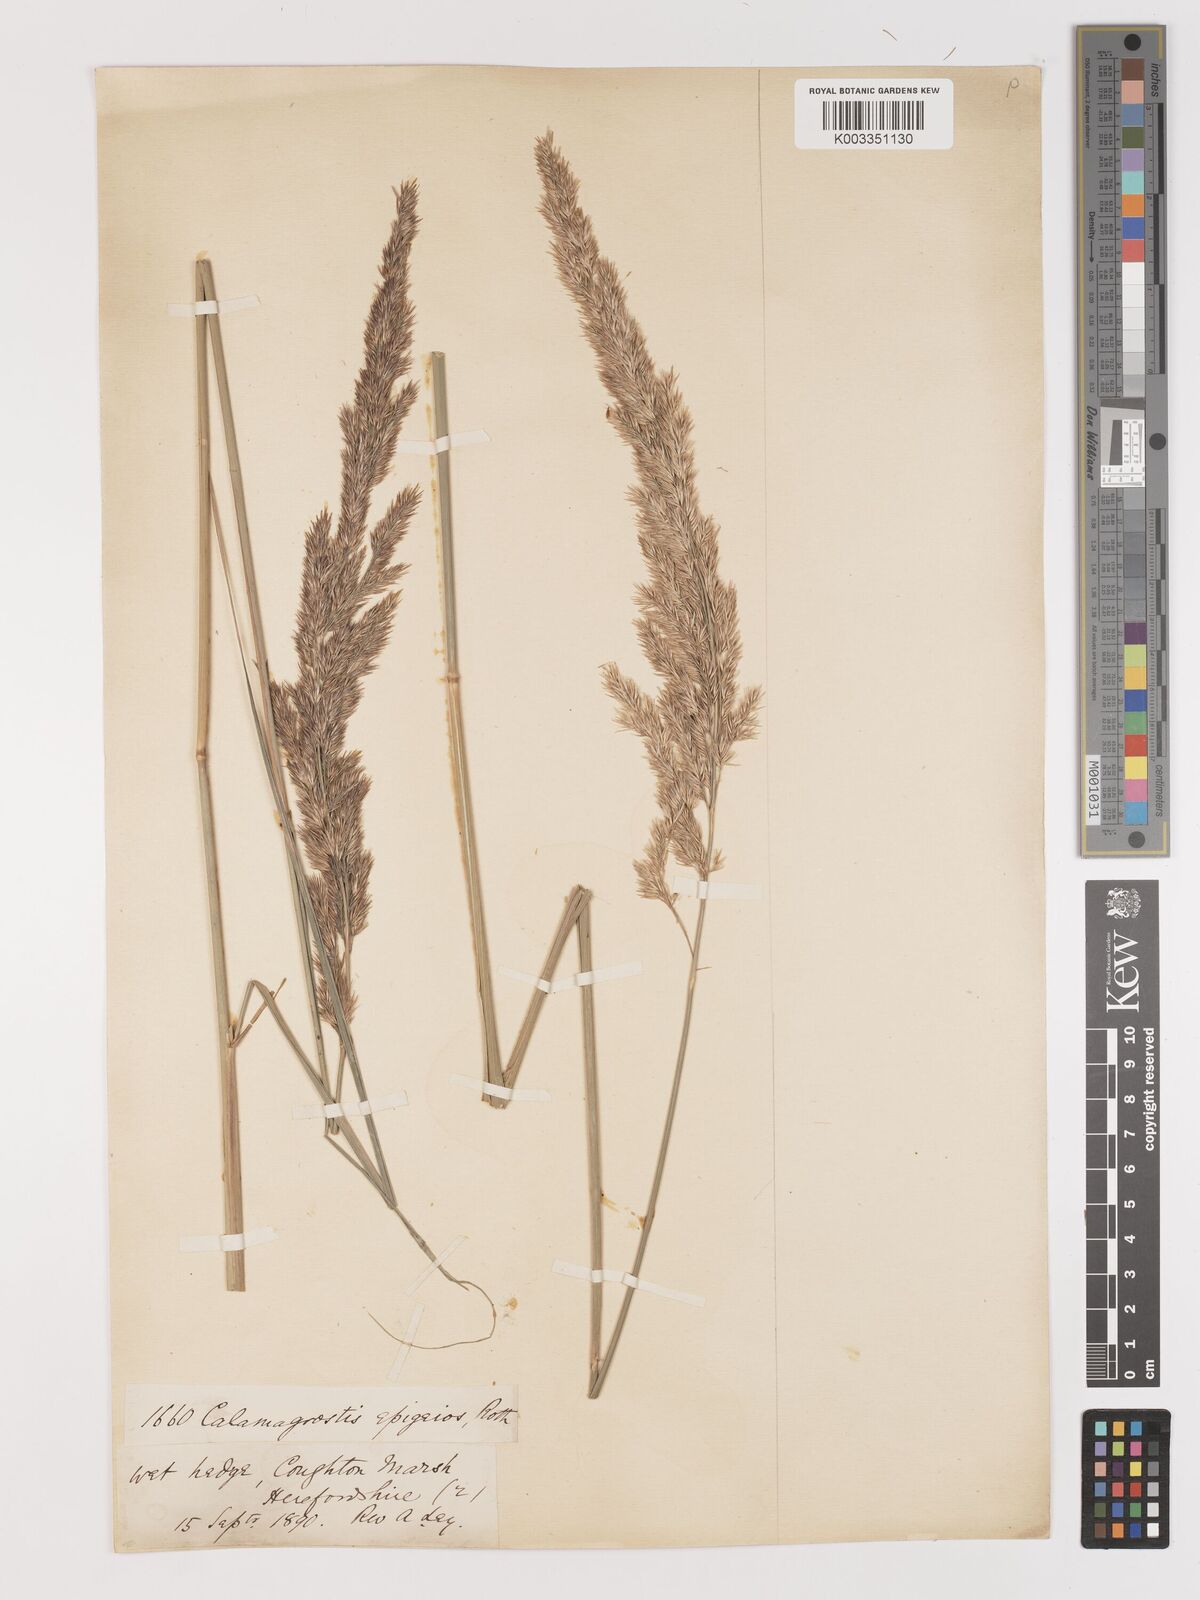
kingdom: Plantae
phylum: Tracheophyta
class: Liliopsida
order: Poales
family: Poaceae
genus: Calamagrostis
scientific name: Calamagrostis
